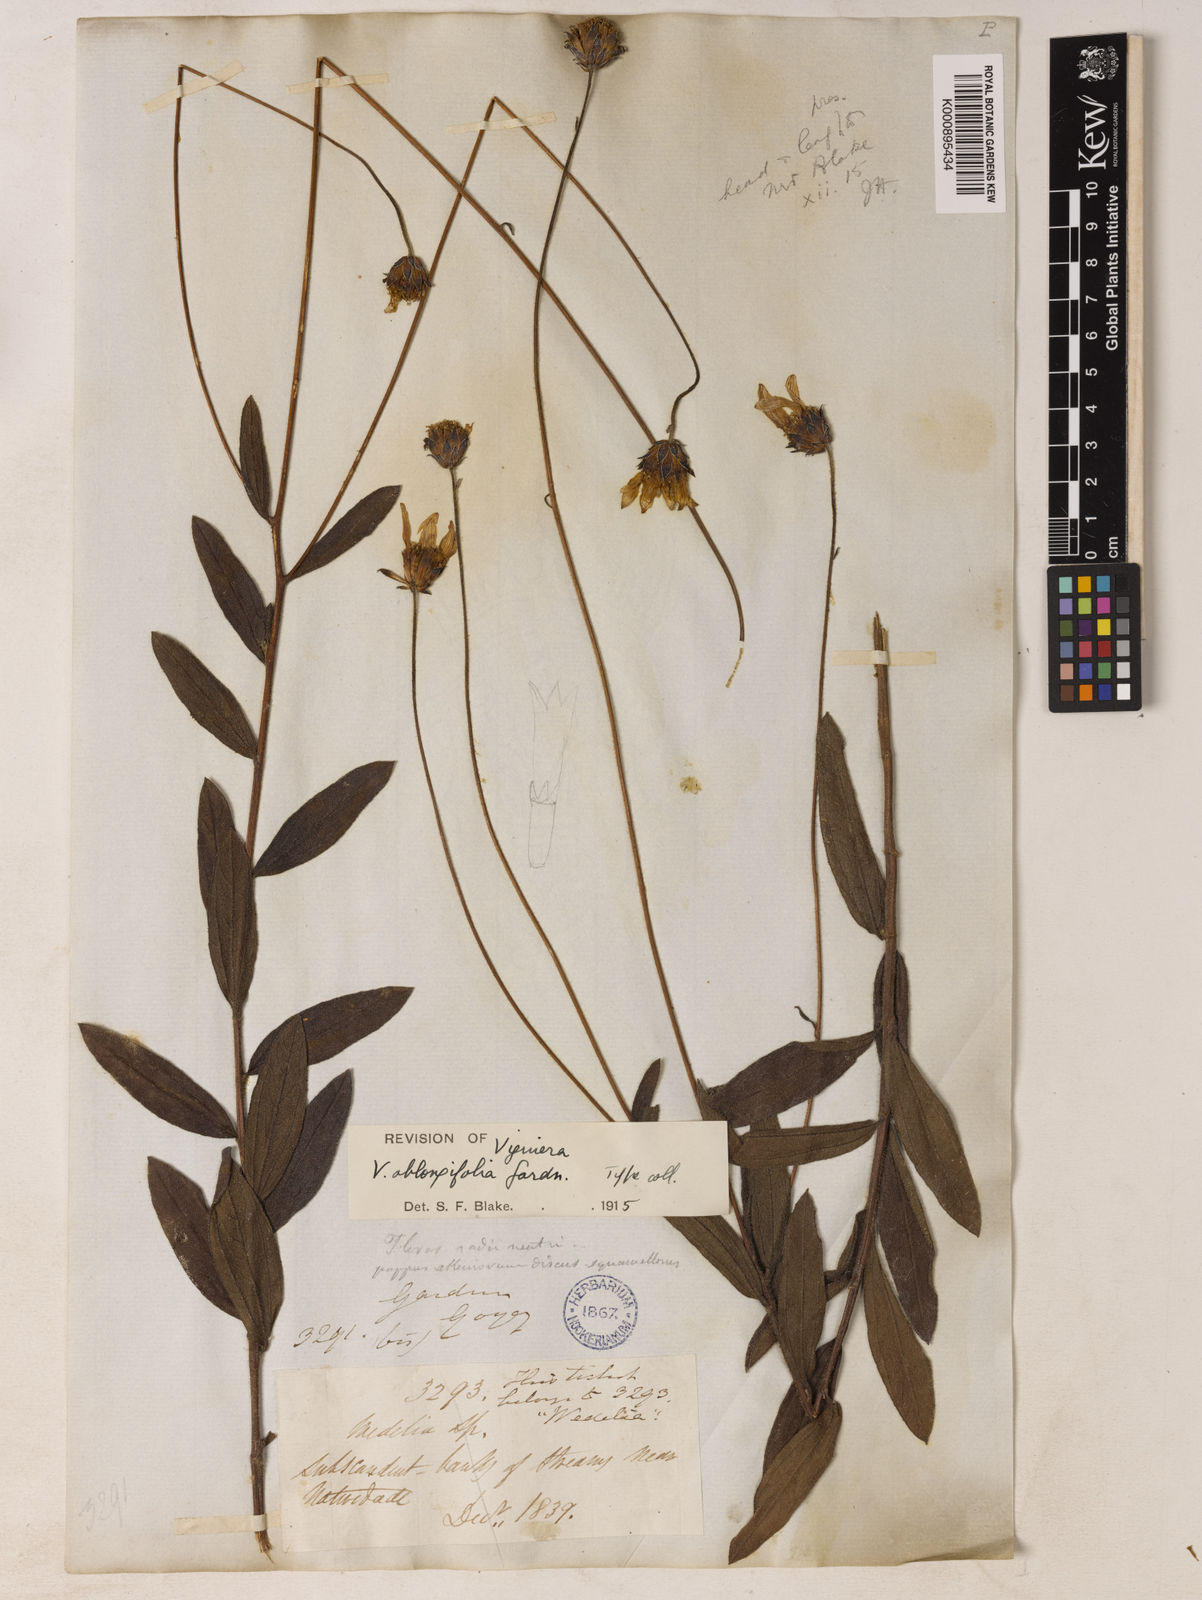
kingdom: Plantae
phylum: Tracheophyta
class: Magnoliopsida
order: Asterales
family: Asteraceae
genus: Aldama
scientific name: Aldama oblongifolia
